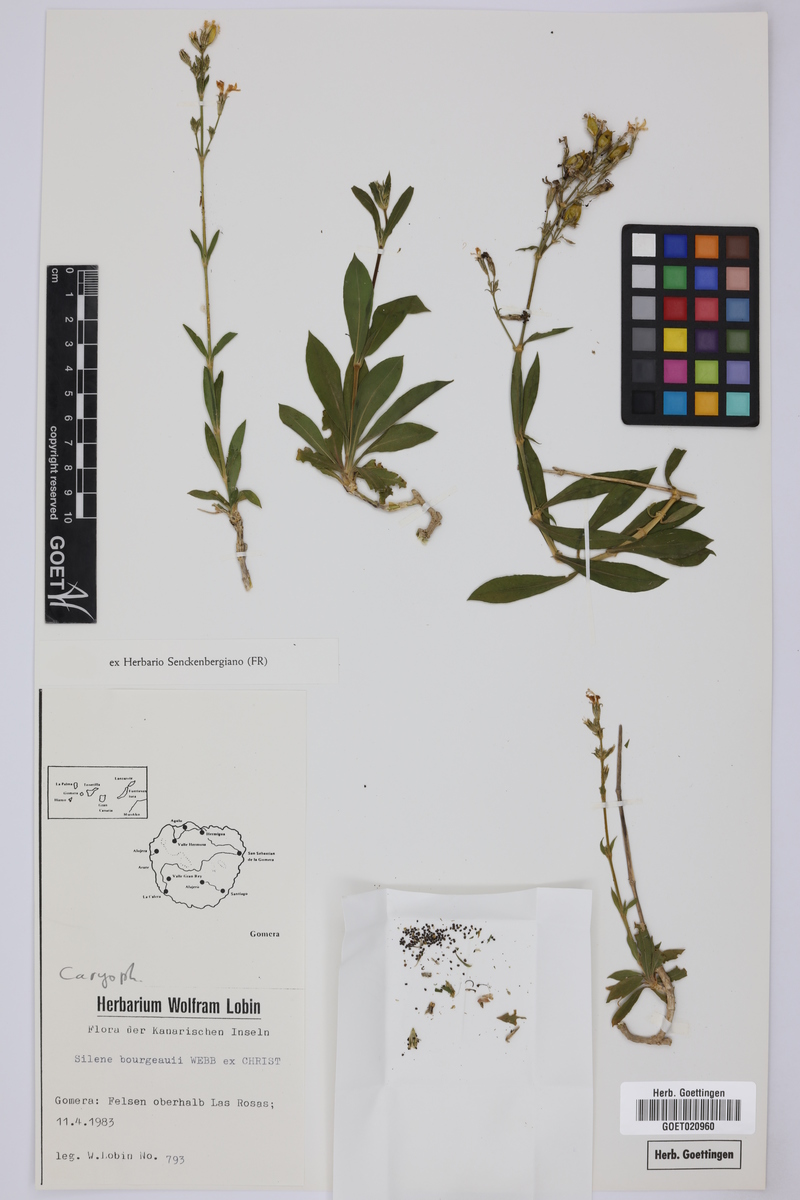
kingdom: Plantae
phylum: Tracheophyta
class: Magnoliopsida
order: Caryophyllales
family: Caryophyllaceae
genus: Silene
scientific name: Silene bourgaei
